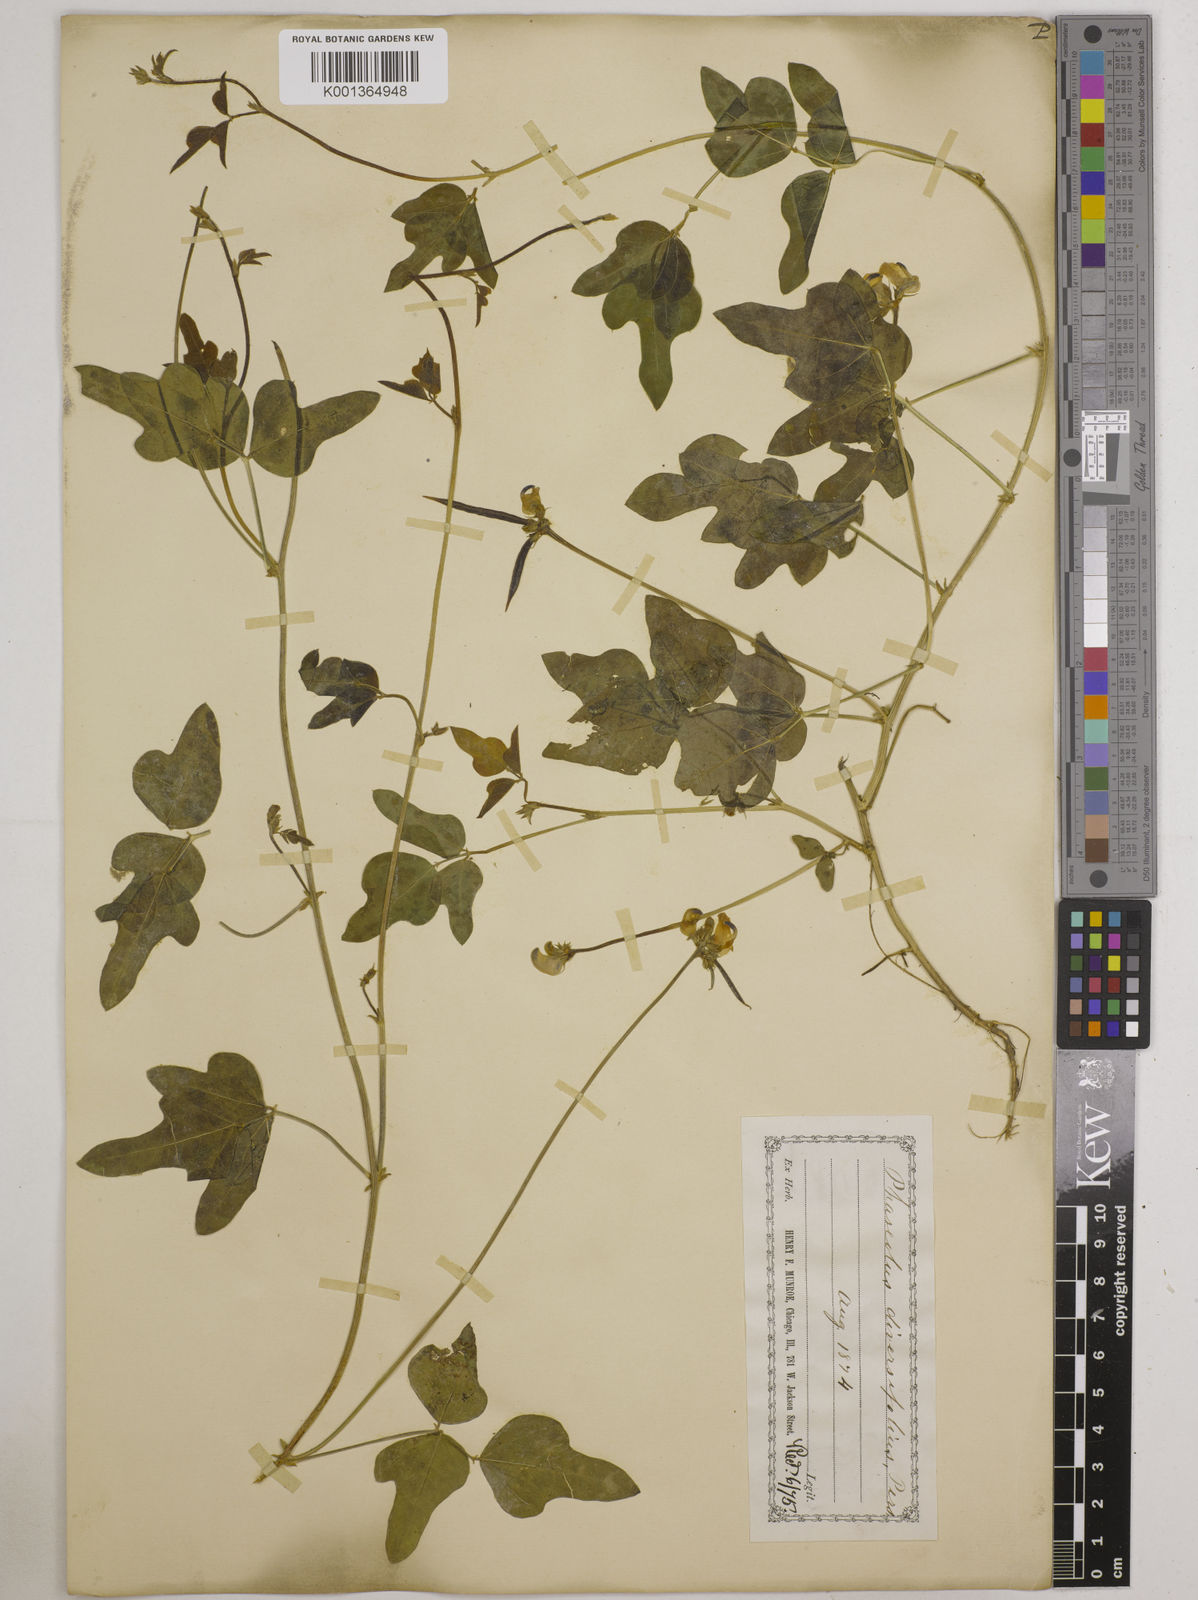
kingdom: Plantae
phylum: Tracheophyta
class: Magnoliopsida
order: Fabales
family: Fabaceae
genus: Strophostyles
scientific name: Strophostyles
